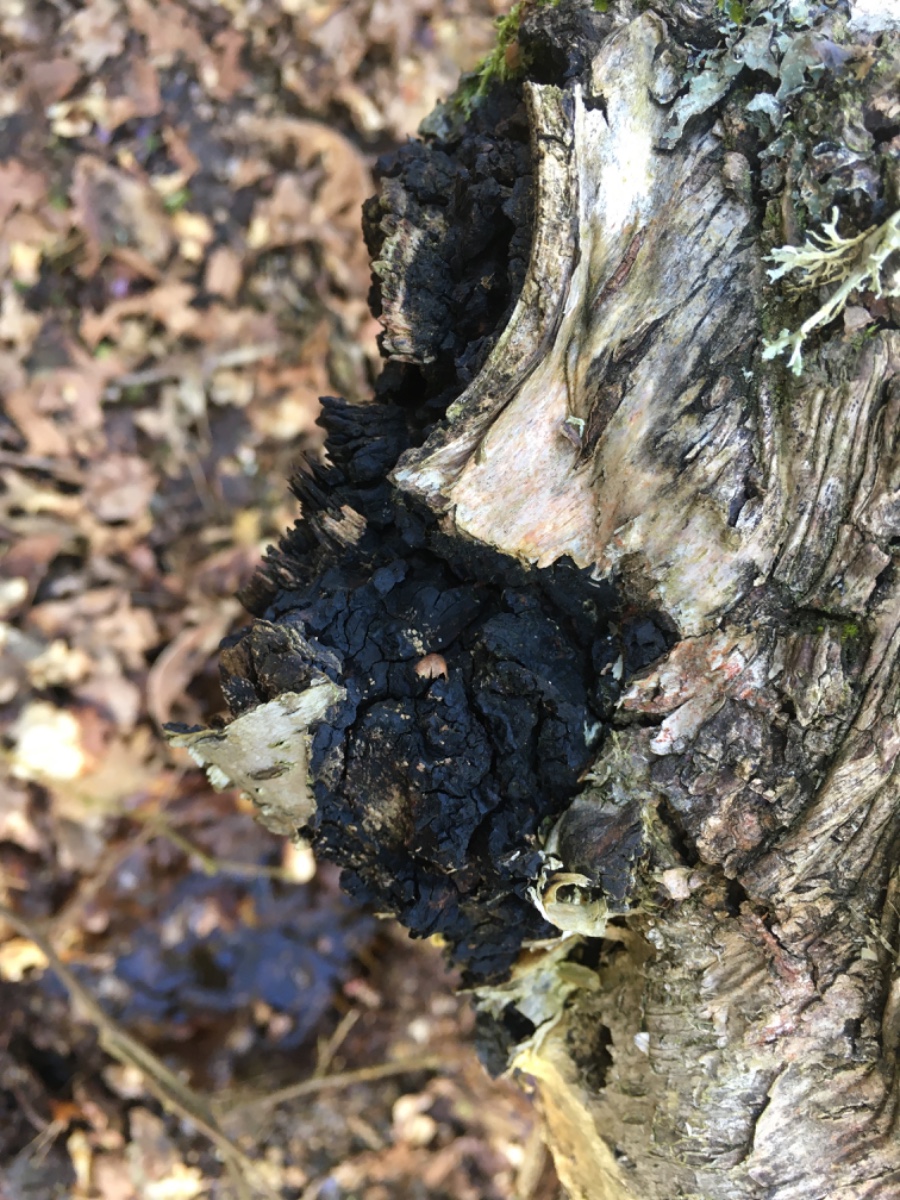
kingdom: Fungi
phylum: Basidiomycota
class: Agaricomycetes
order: Hymenochaetales
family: Hymenochaetaceae
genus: Inonotus
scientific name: Inonotus obliquus
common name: birke-spejlporesvamp
